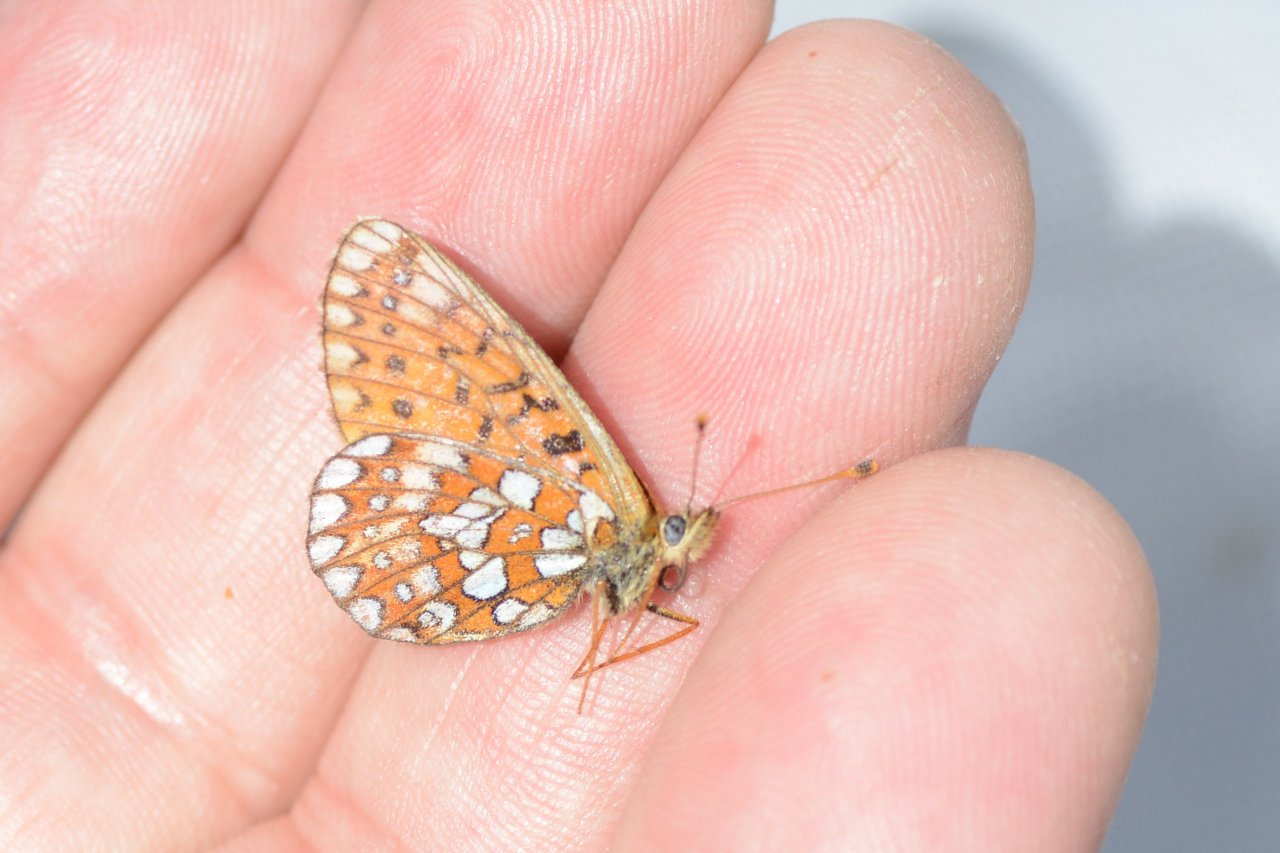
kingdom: Animalia
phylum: Arthropoda
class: Insecta
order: Lepidoptera
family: Nymphalidae
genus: Boloria
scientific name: Boloria eunomia
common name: Bog Fritillary
